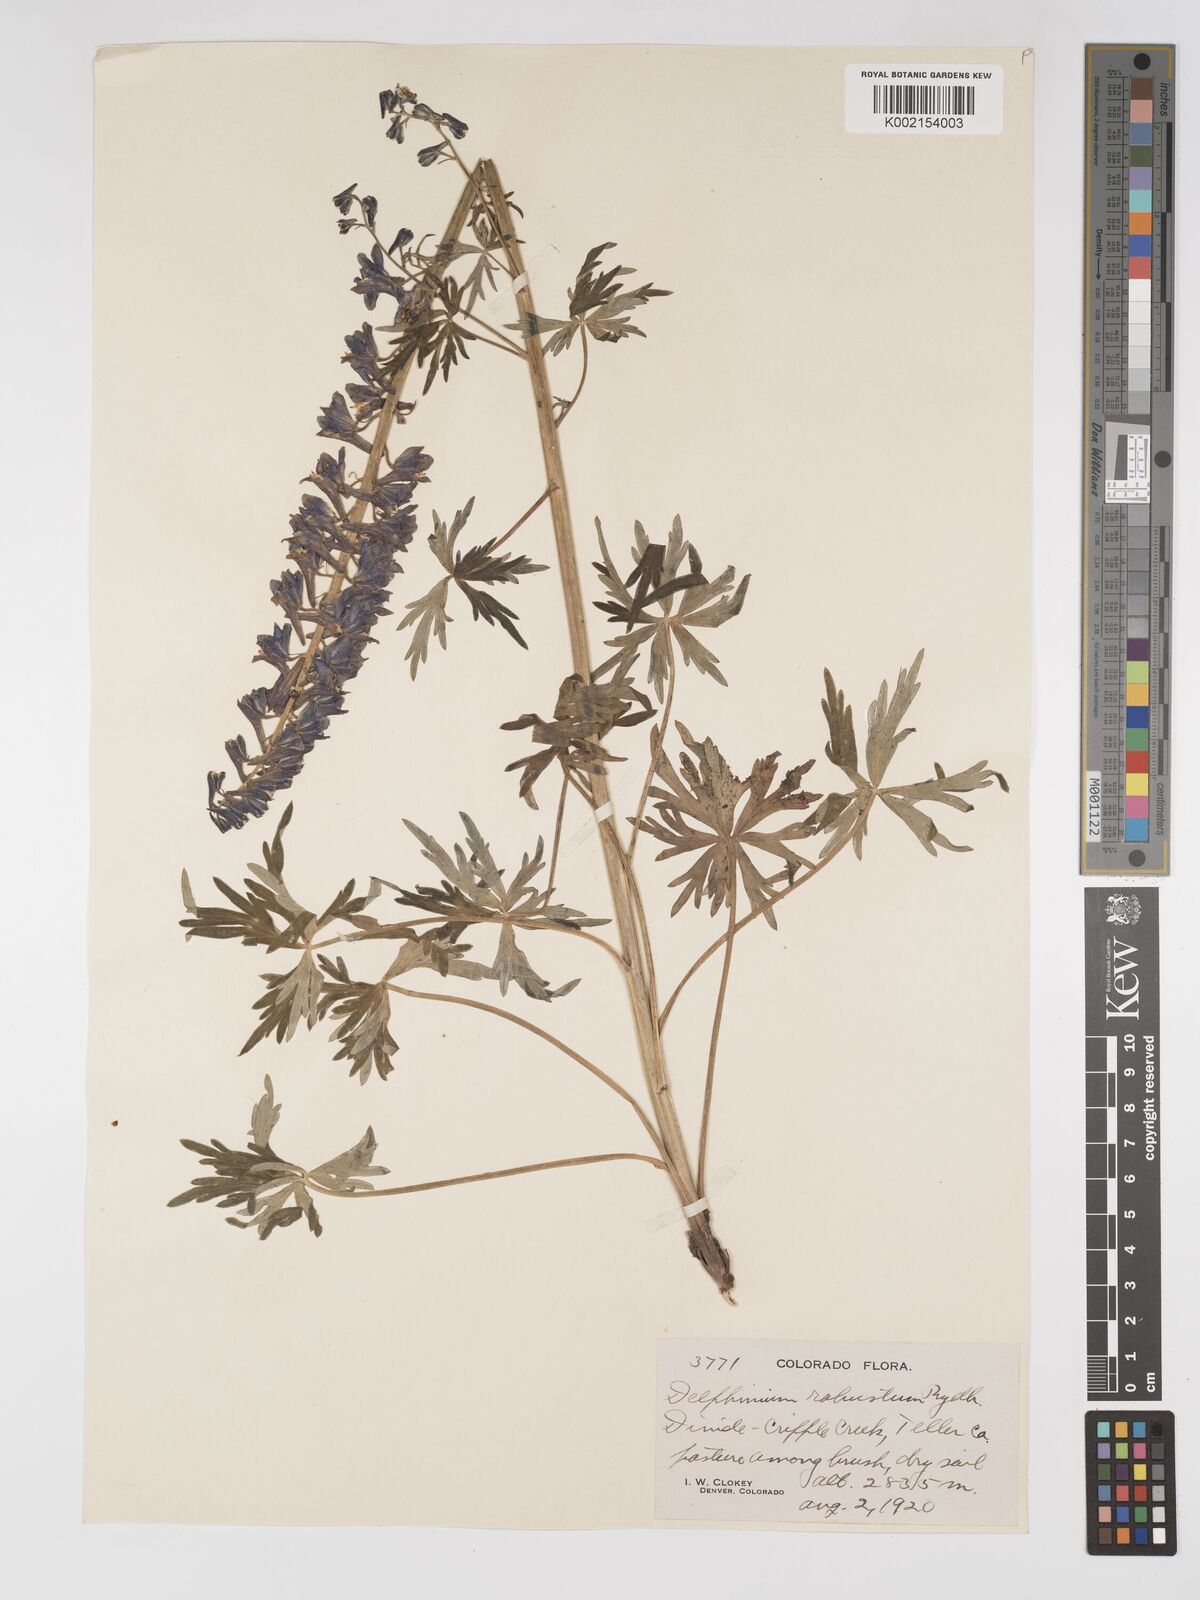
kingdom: Plantae
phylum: Tracheophyta
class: Magnoliopsida
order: Ranunculales
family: Ranunculaceae
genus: Delphinium
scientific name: Delphinium robustum
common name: Robust larkspur
